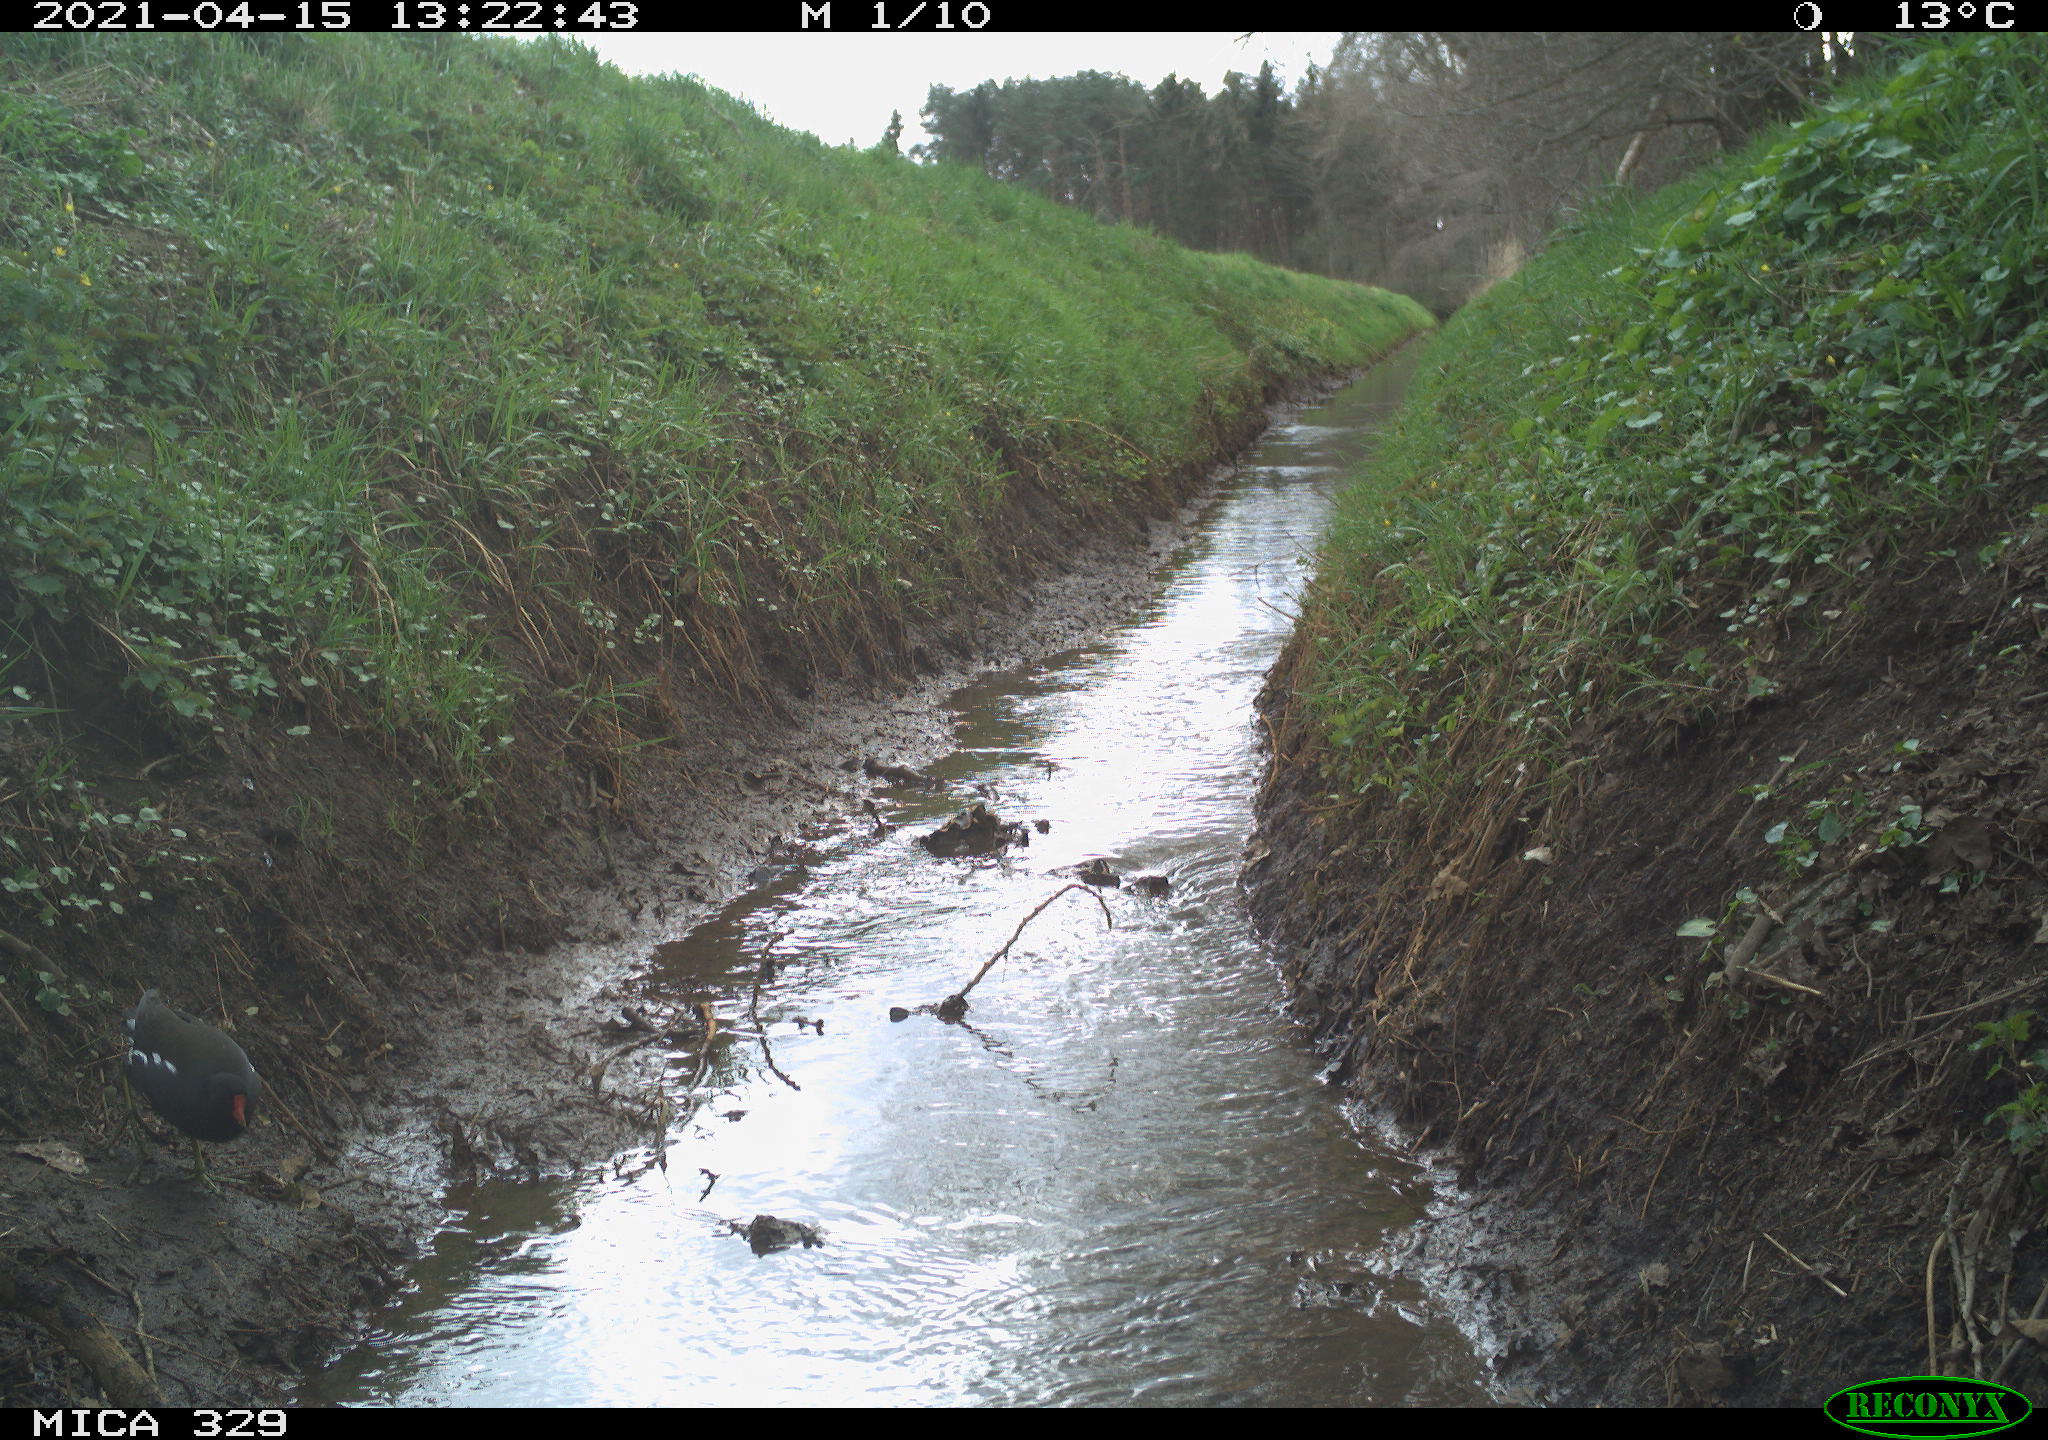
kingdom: Animalia
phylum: Chordata
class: Aves
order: Gruiformes
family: Rallidae
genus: Gallinula
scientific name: Gallinula chloropus
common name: Common moorhen
